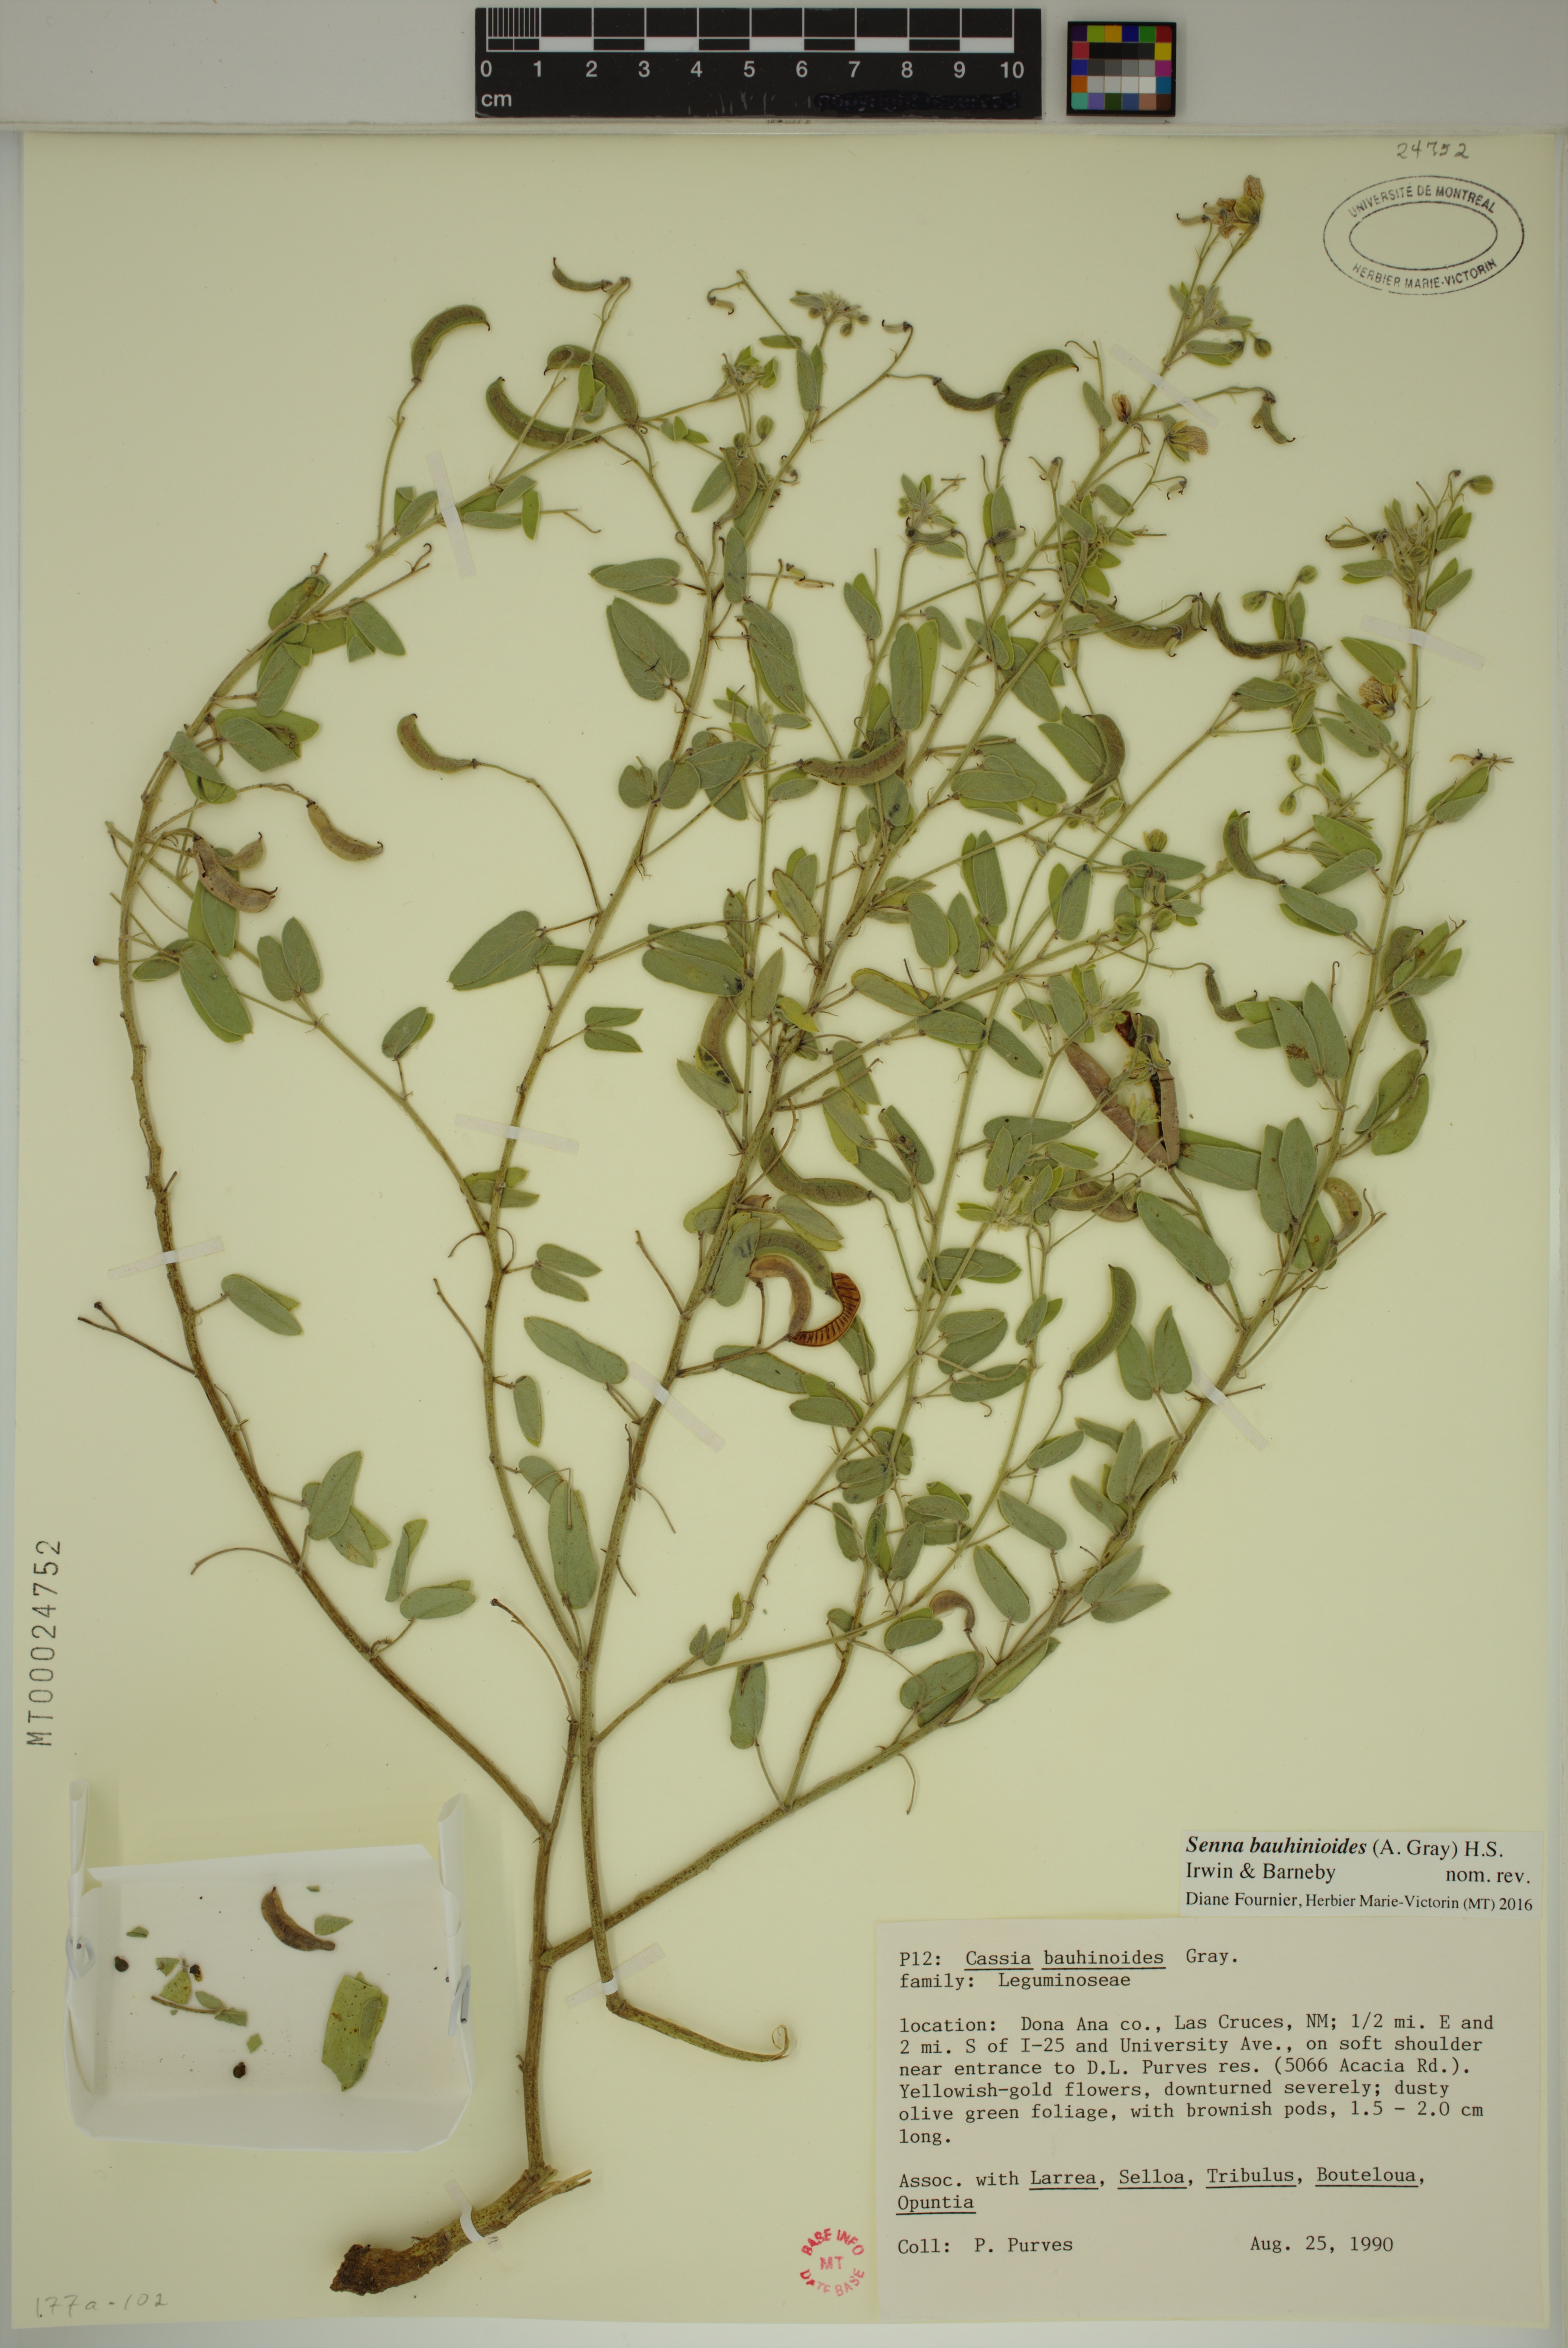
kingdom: Plantae
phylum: Tracheophyta
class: Magnoliopsida
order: Fabales
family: Fabaceae
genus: Senna
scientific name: Senna bauhinioides
